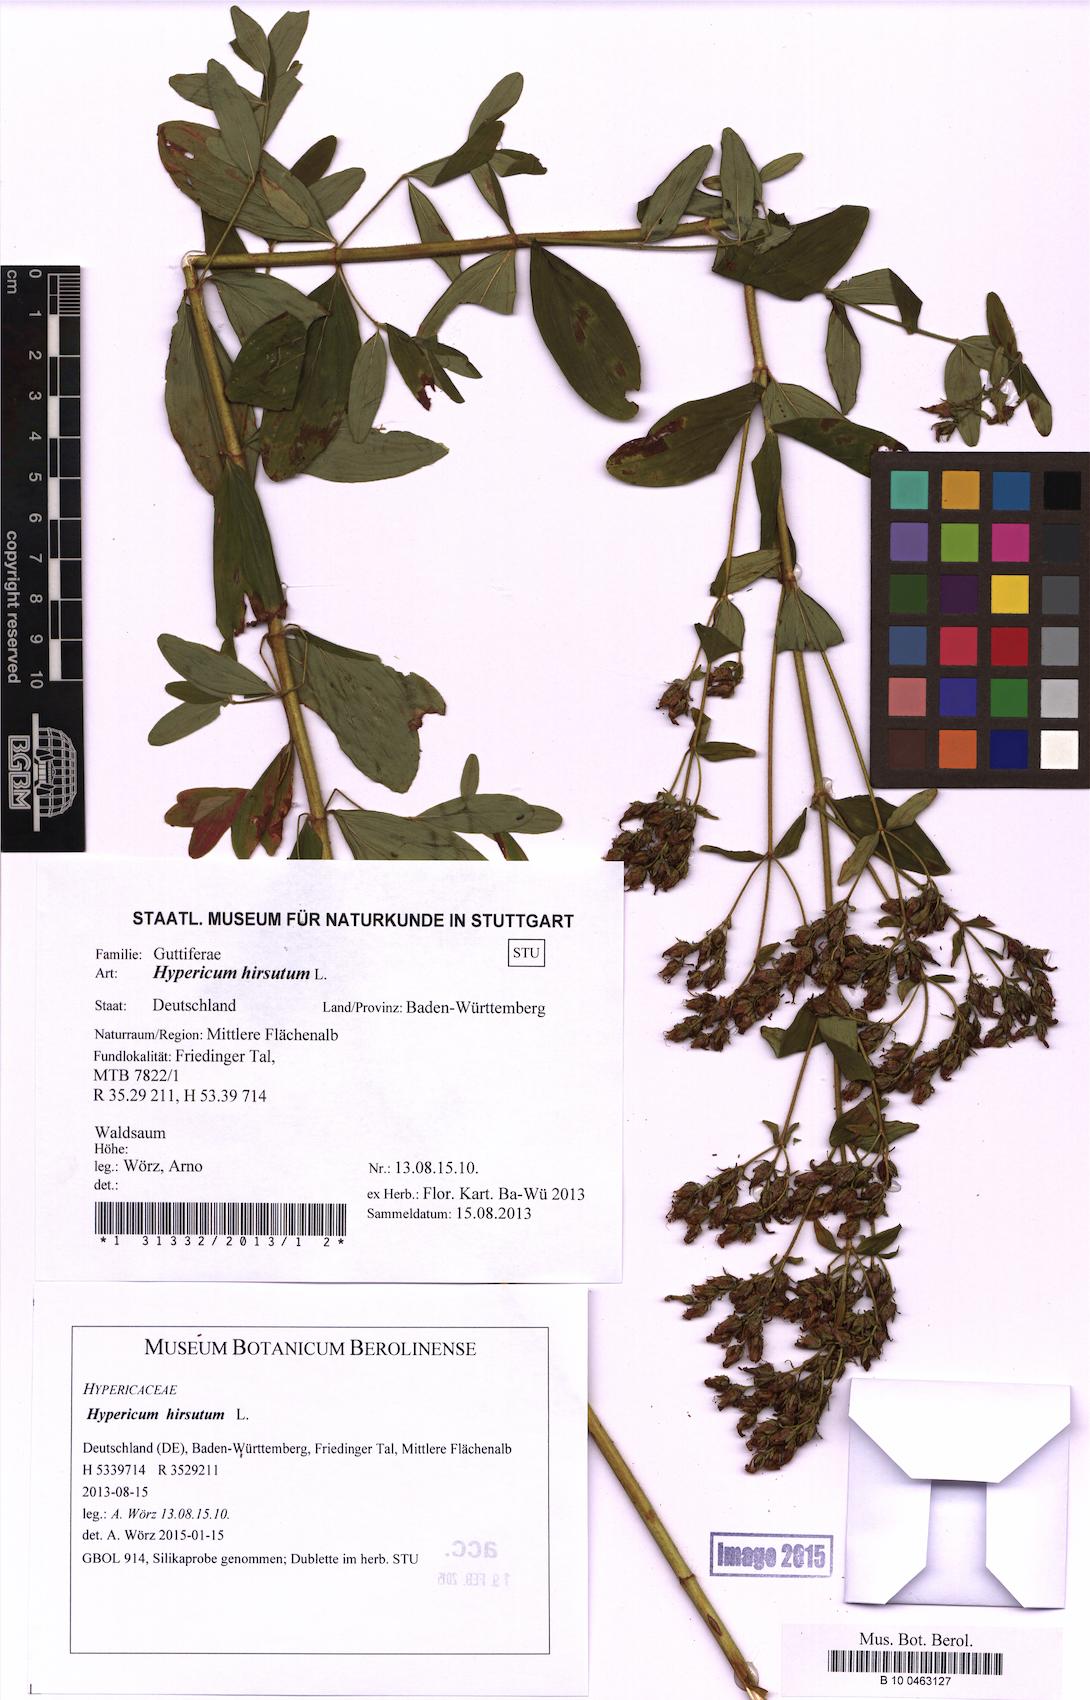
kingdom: Plantae
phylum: Tracheophyta
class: Magnoliopsida
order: Malpighiales
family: Hypericaceae
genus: Hypericum
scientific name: Hypericum hirsutum
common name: Hairy st. john's-wort
